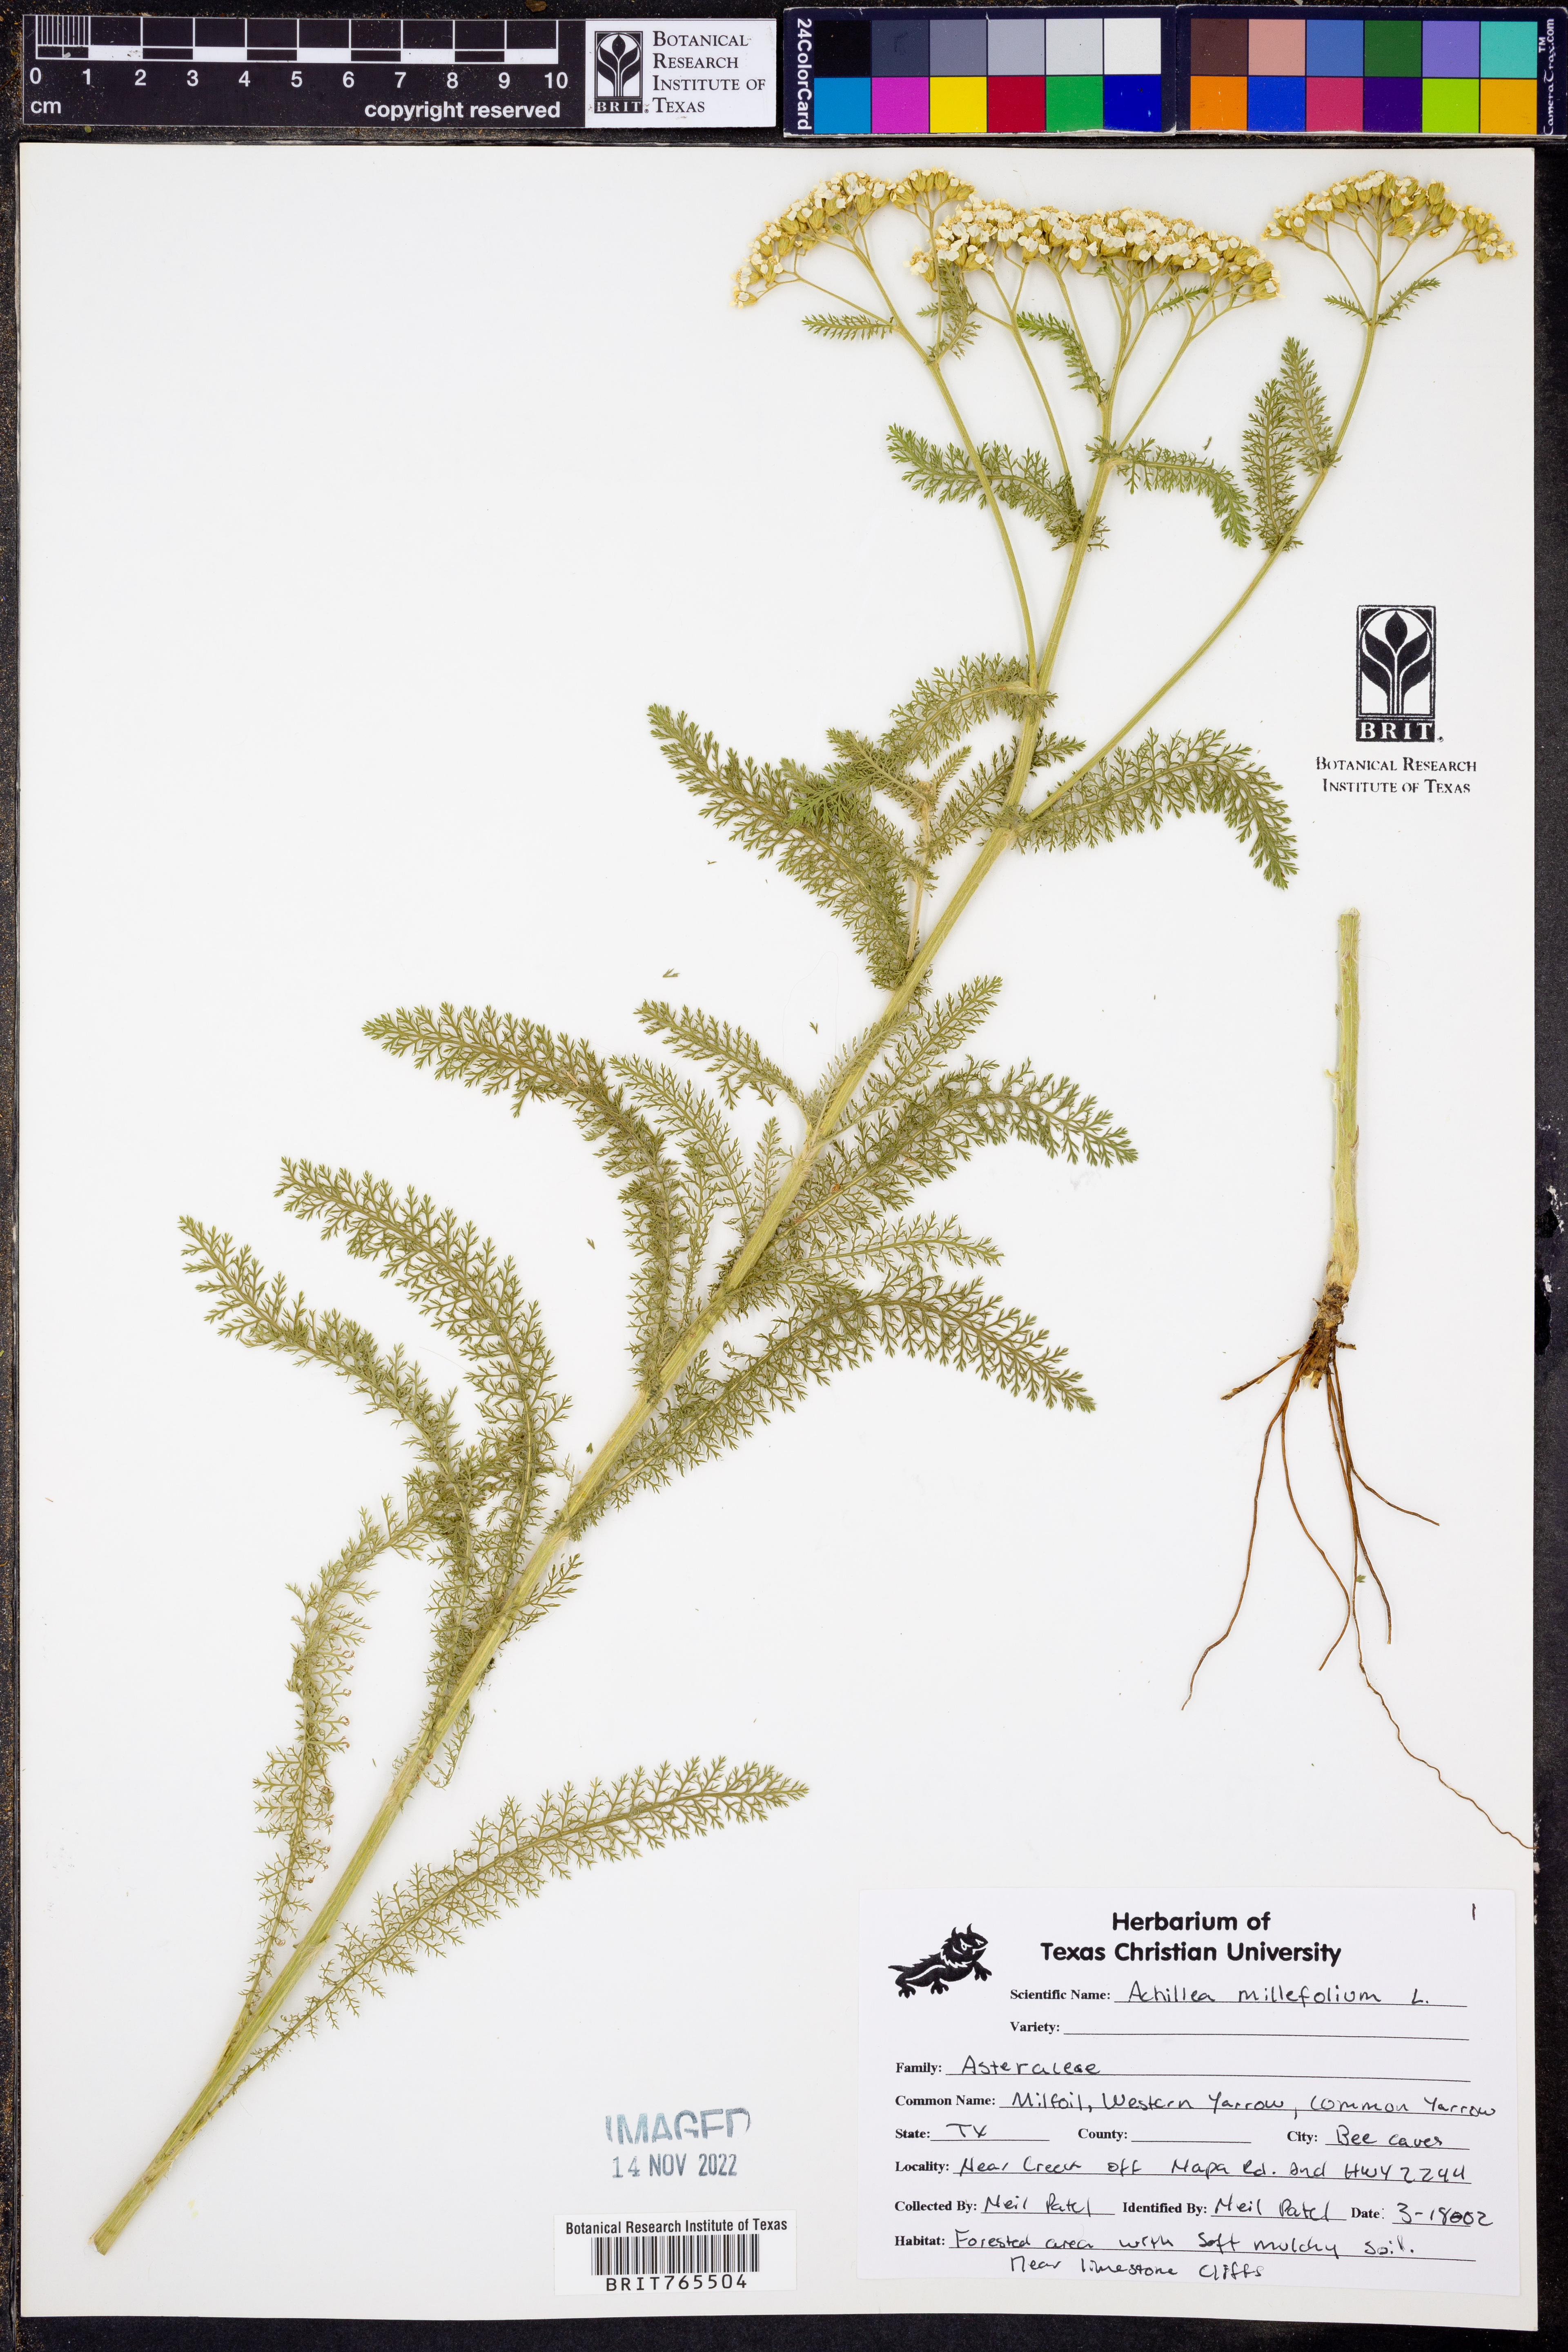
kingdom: Plantae
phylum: Tracheophyta
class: Magnoliopsida
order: Asterales
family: Asteraceae
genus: Achillea
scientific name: Achillea millefolium
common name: Yarrow
